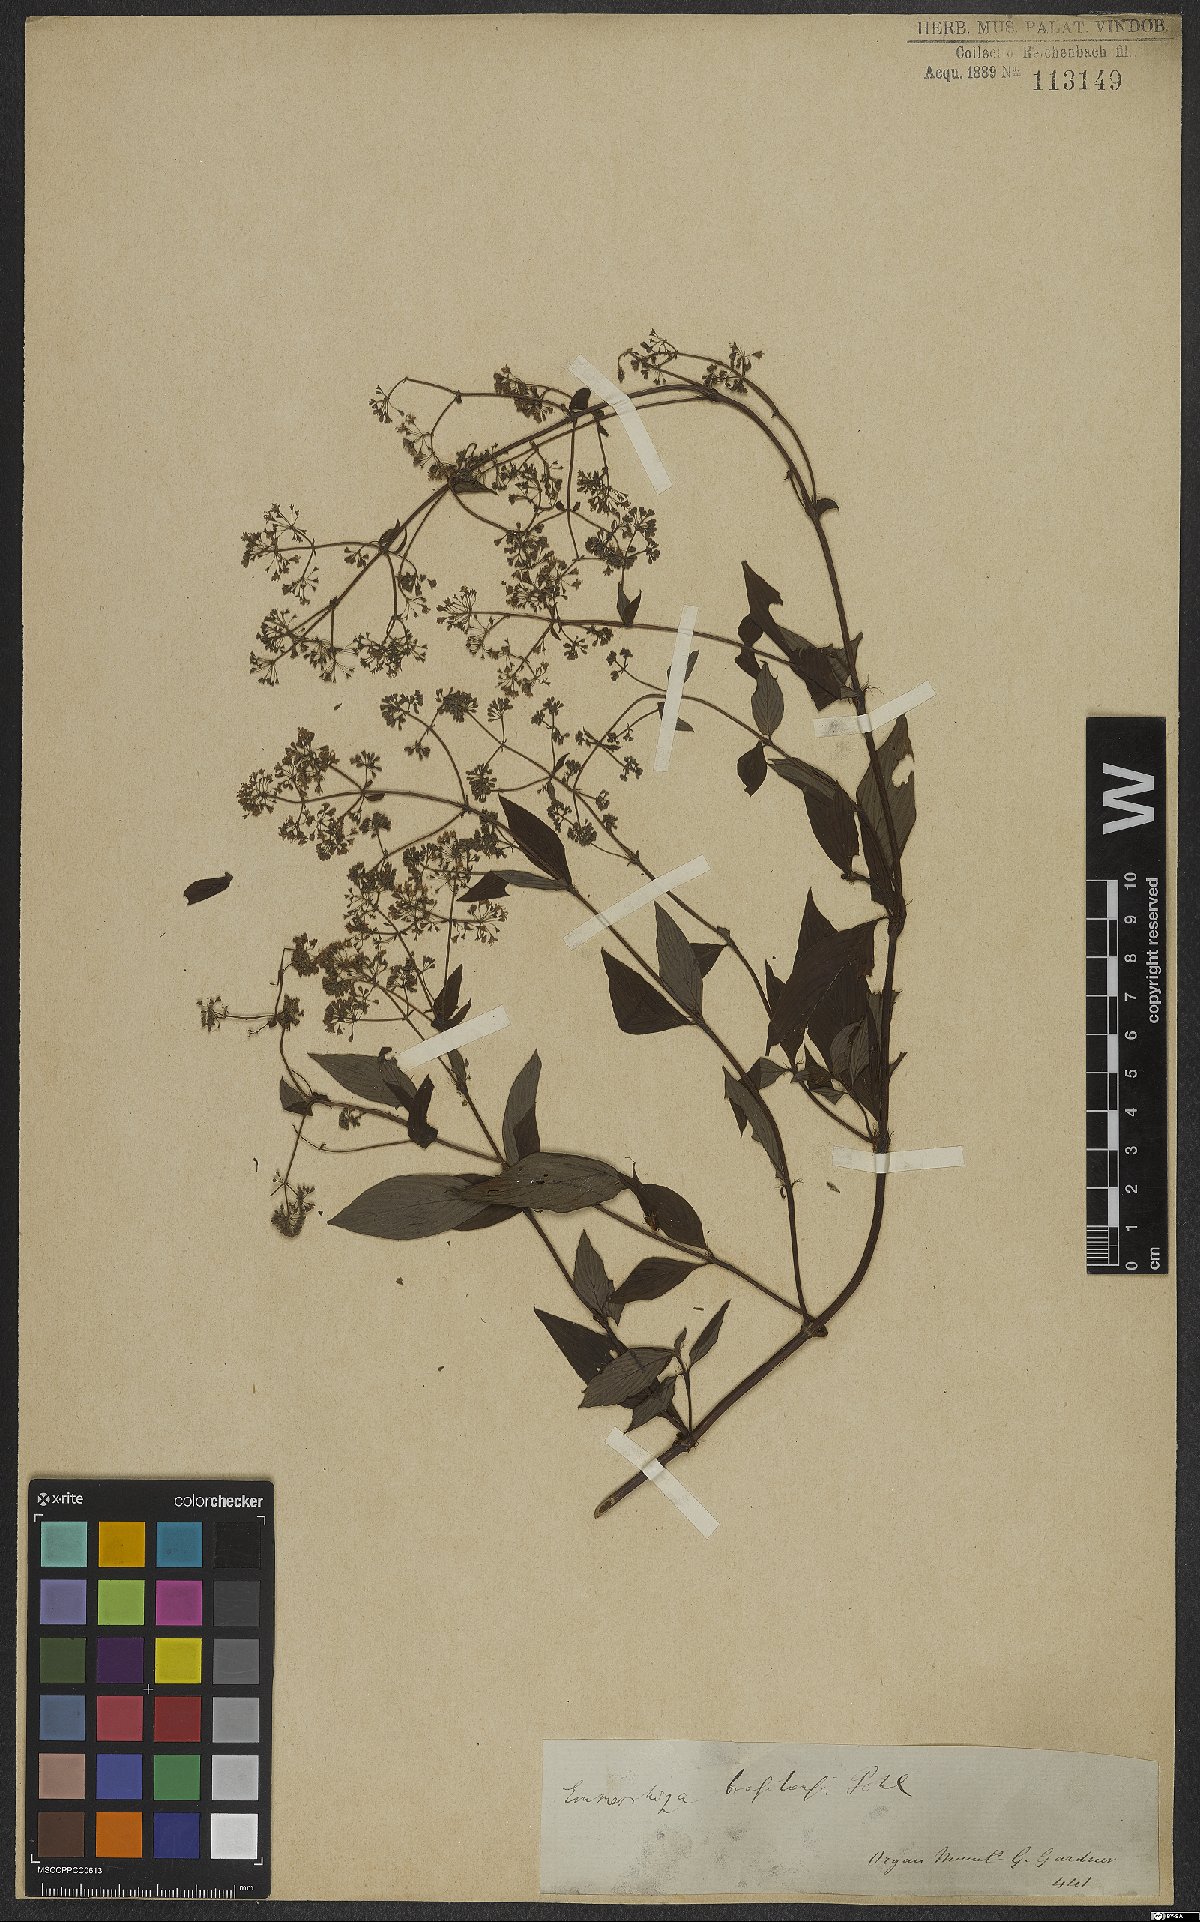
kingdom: Plantae
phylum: Tracheophyta
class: Magnoliopsida
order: Gentianales
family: Rubiaceae
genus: Emmeorhiza
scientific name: Emmeorhiza umbellata
